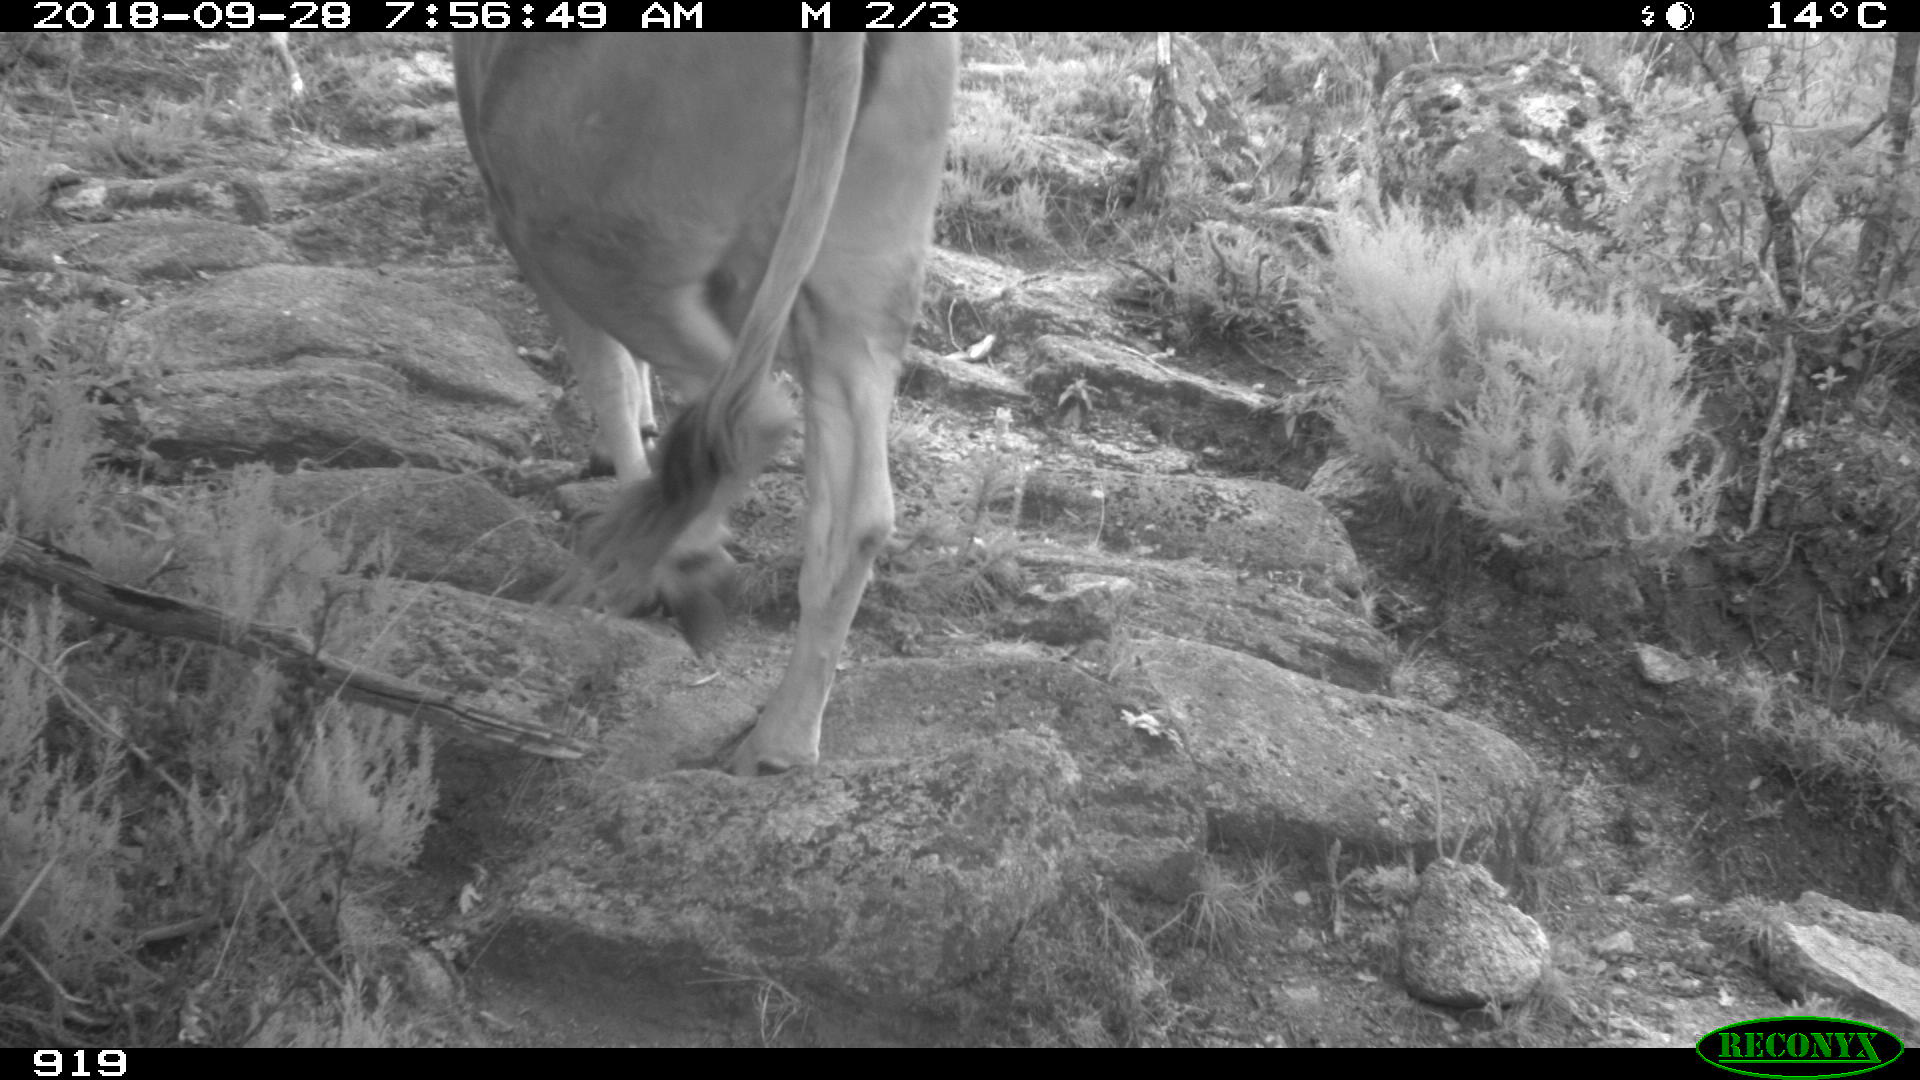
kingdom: Animalia
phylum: Chordata
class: Mammalia
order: Artiodactyla
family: Bovidae
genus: Bos
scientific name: Bos taurus
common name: Domesticated cattle
